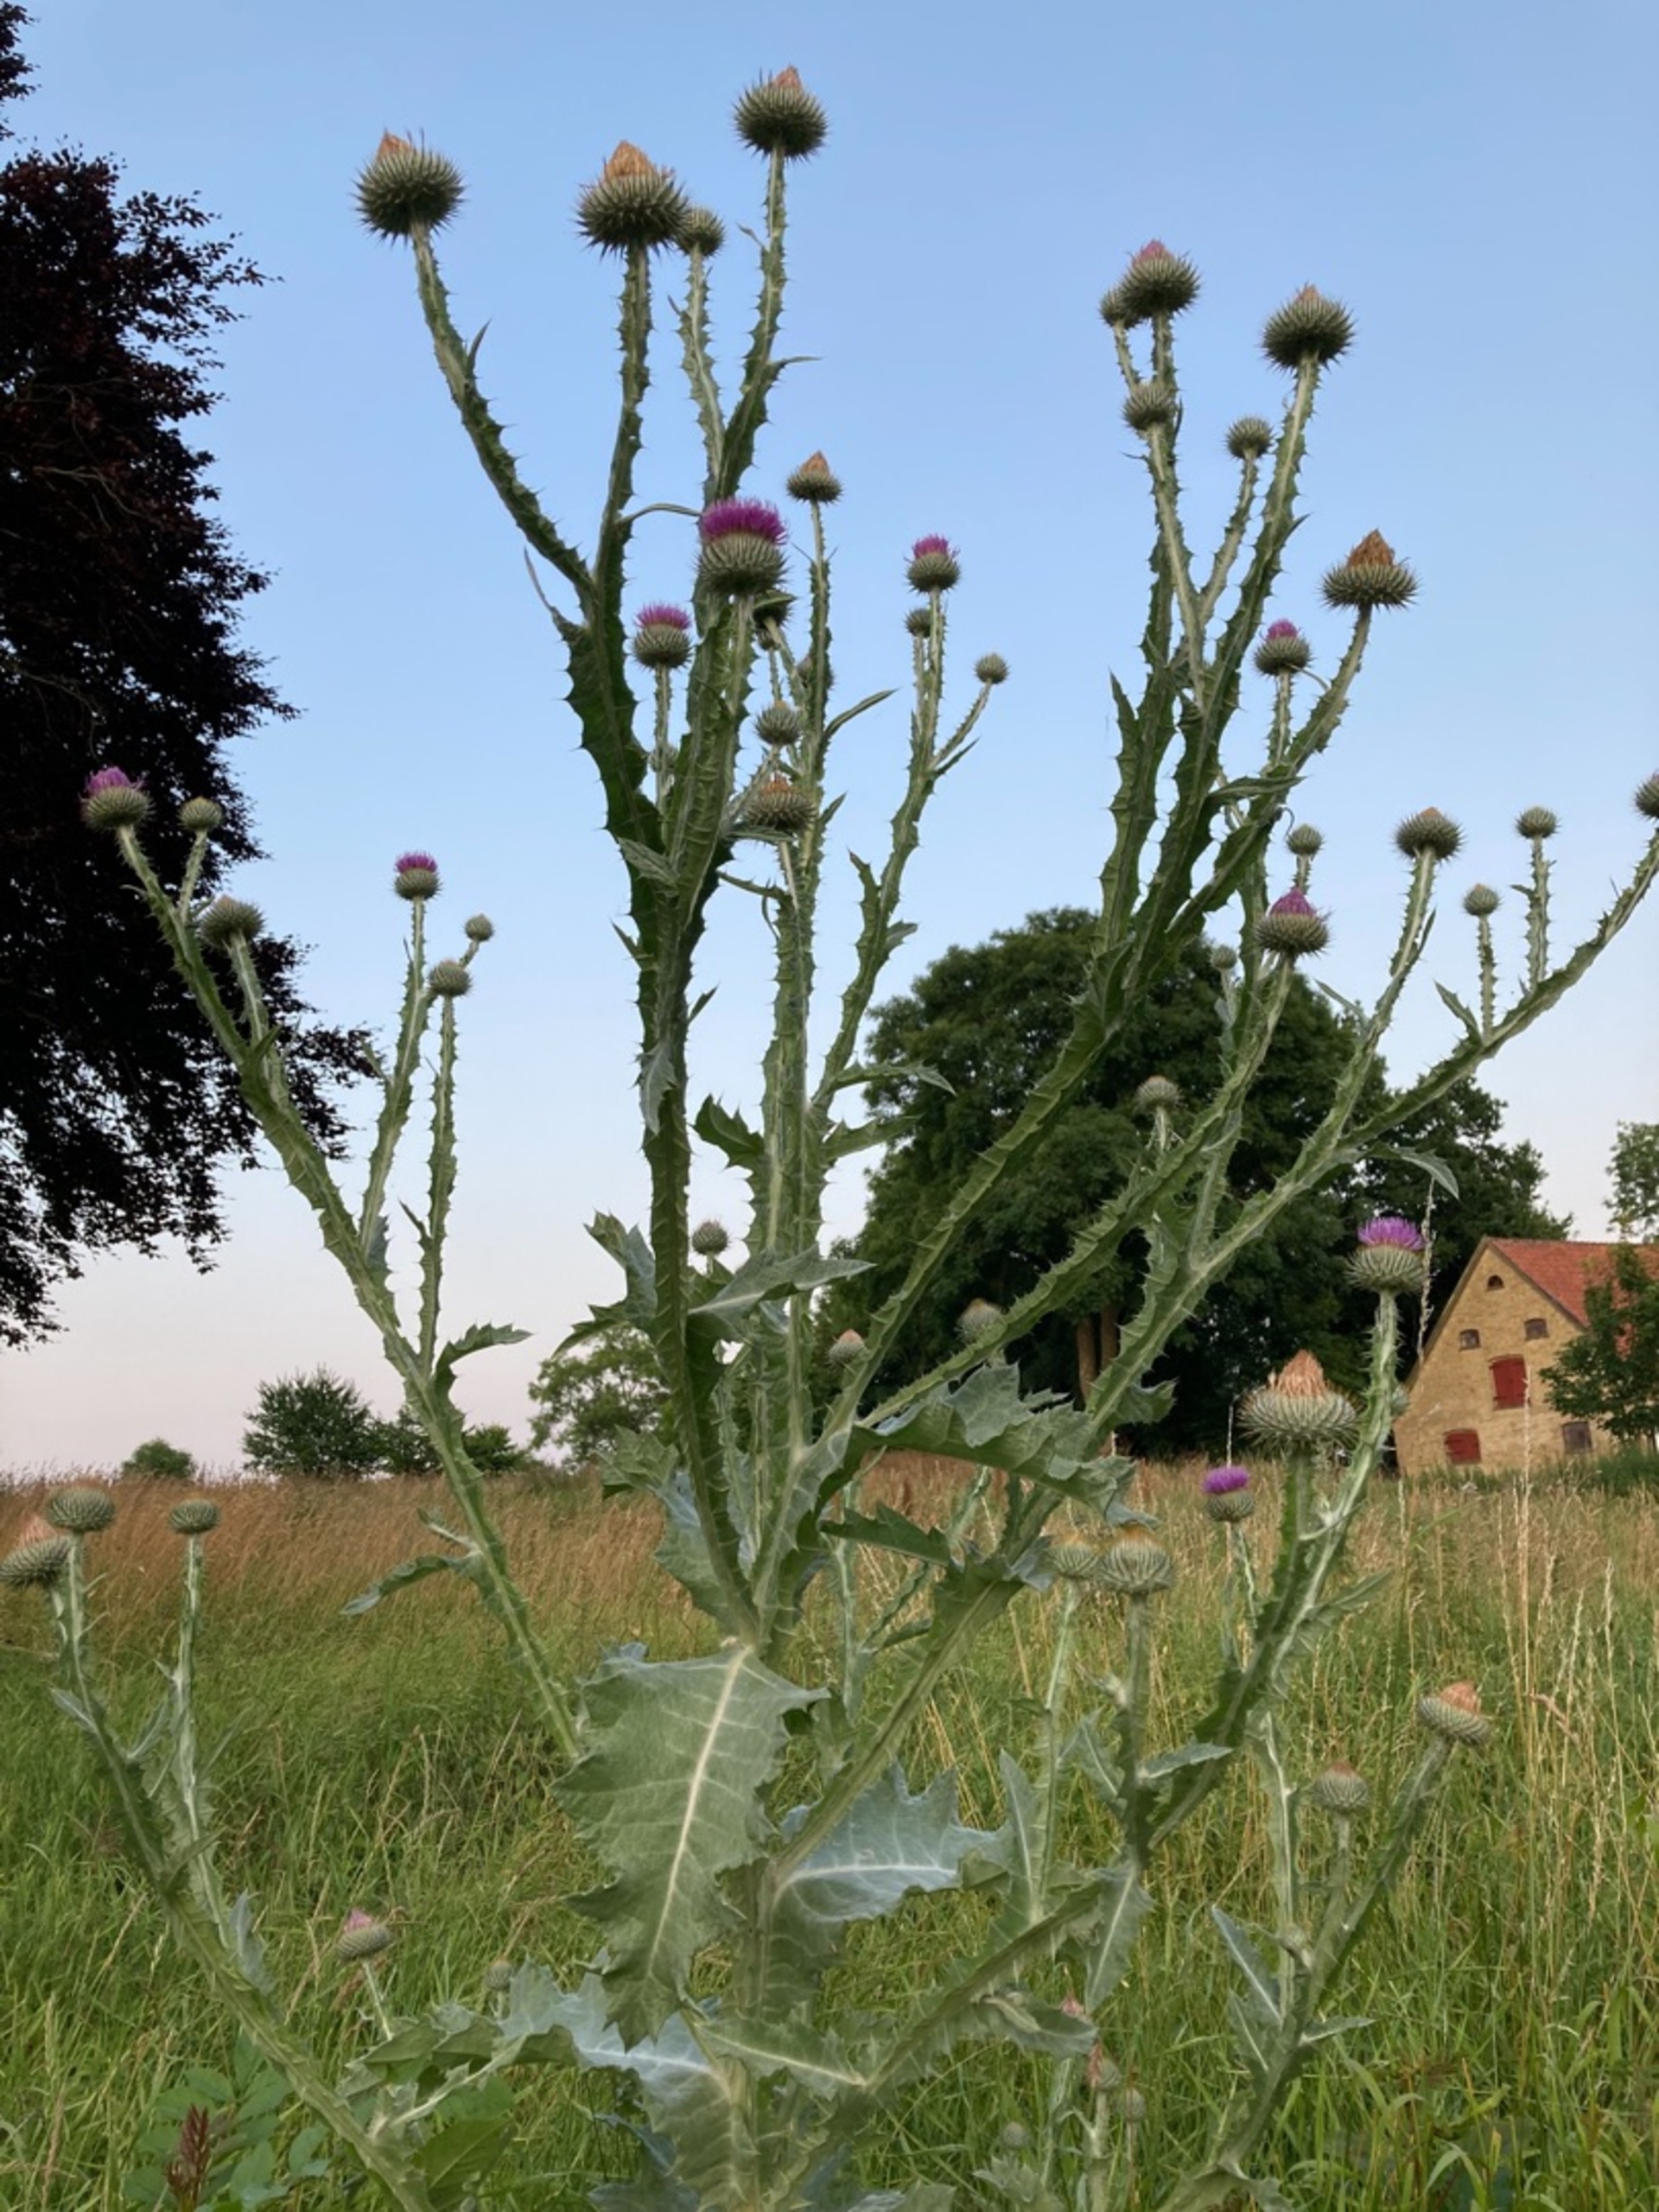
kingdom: Plantae
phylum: Tracheophyta
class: Magnoliopsida
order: Asterales
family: Asteraceae
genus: Onopordum
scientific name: Onopordum acanthium
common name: Æselfoder
